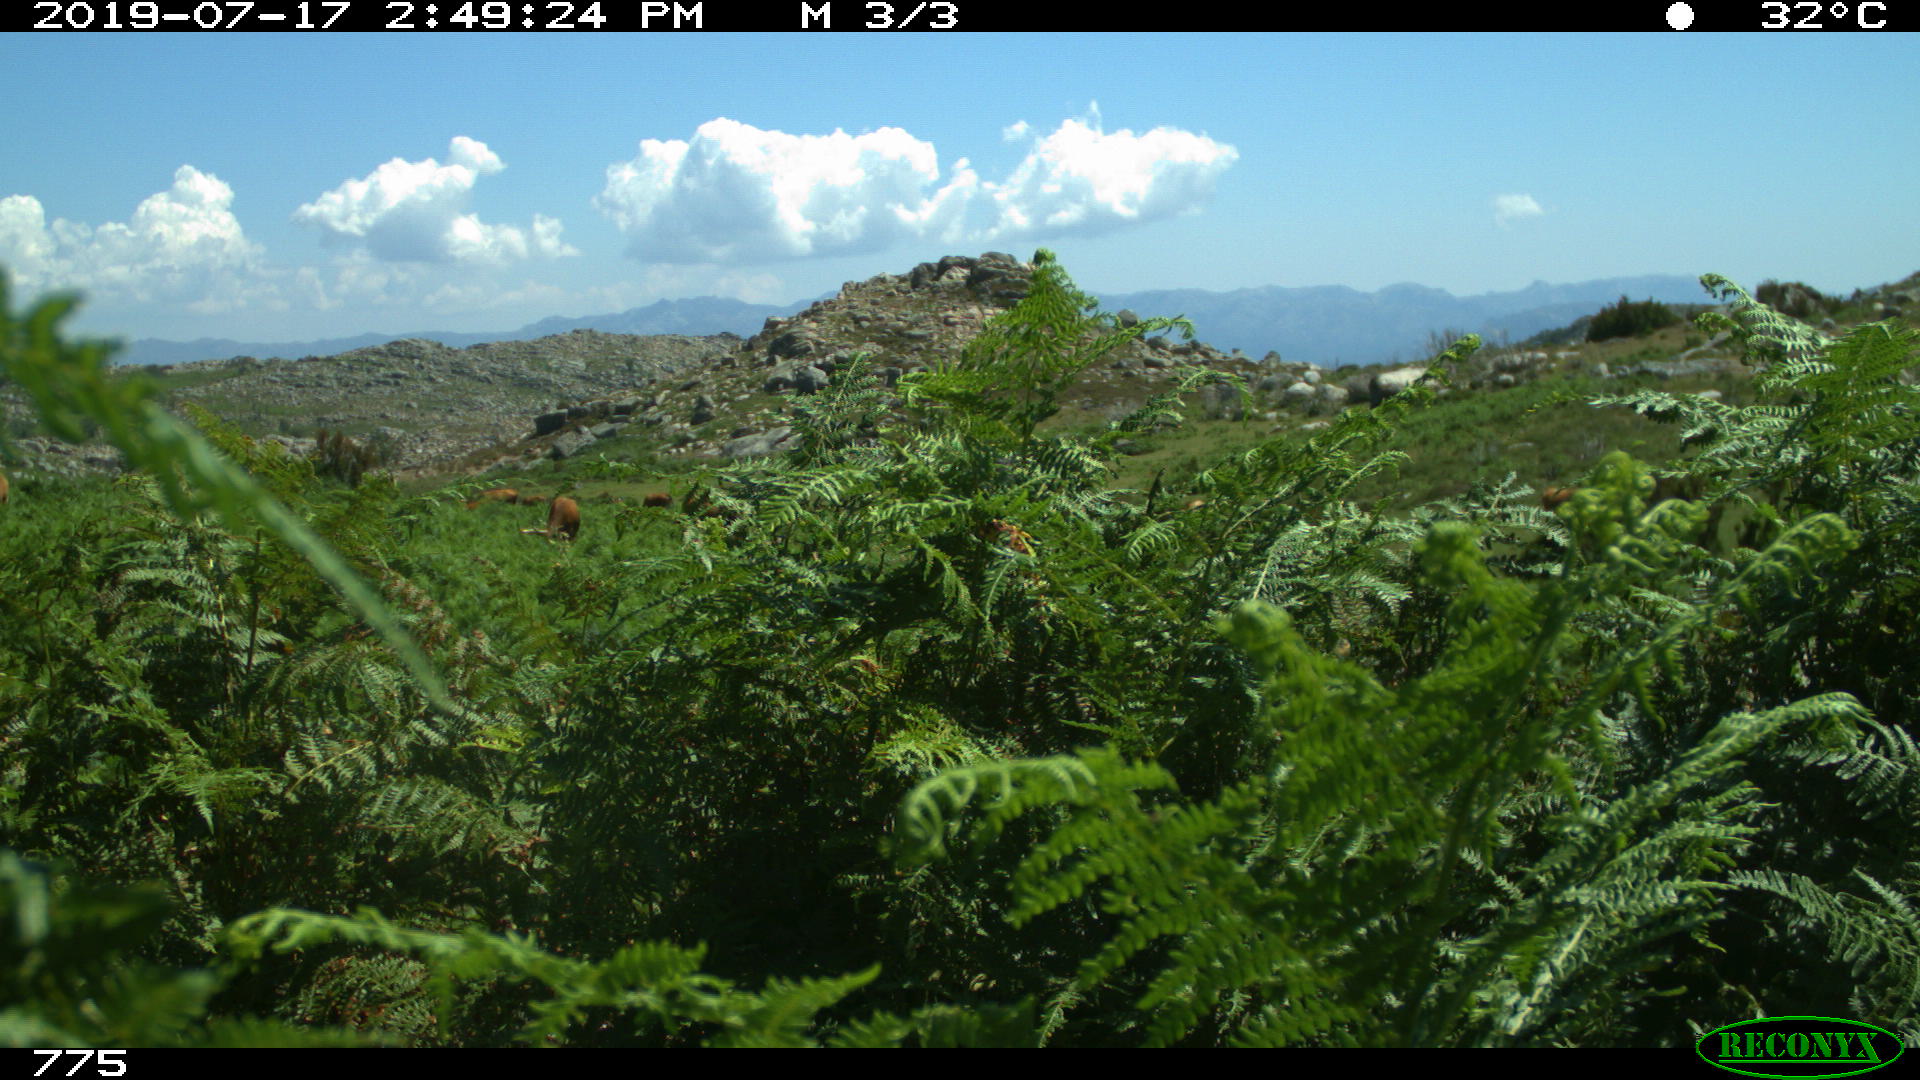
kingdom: Animalia
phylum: Chordata
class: Mammalia
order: Artiodactyla
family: Bovidae
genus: Bos
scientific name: Bos taurus
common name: Domesticated cattle
